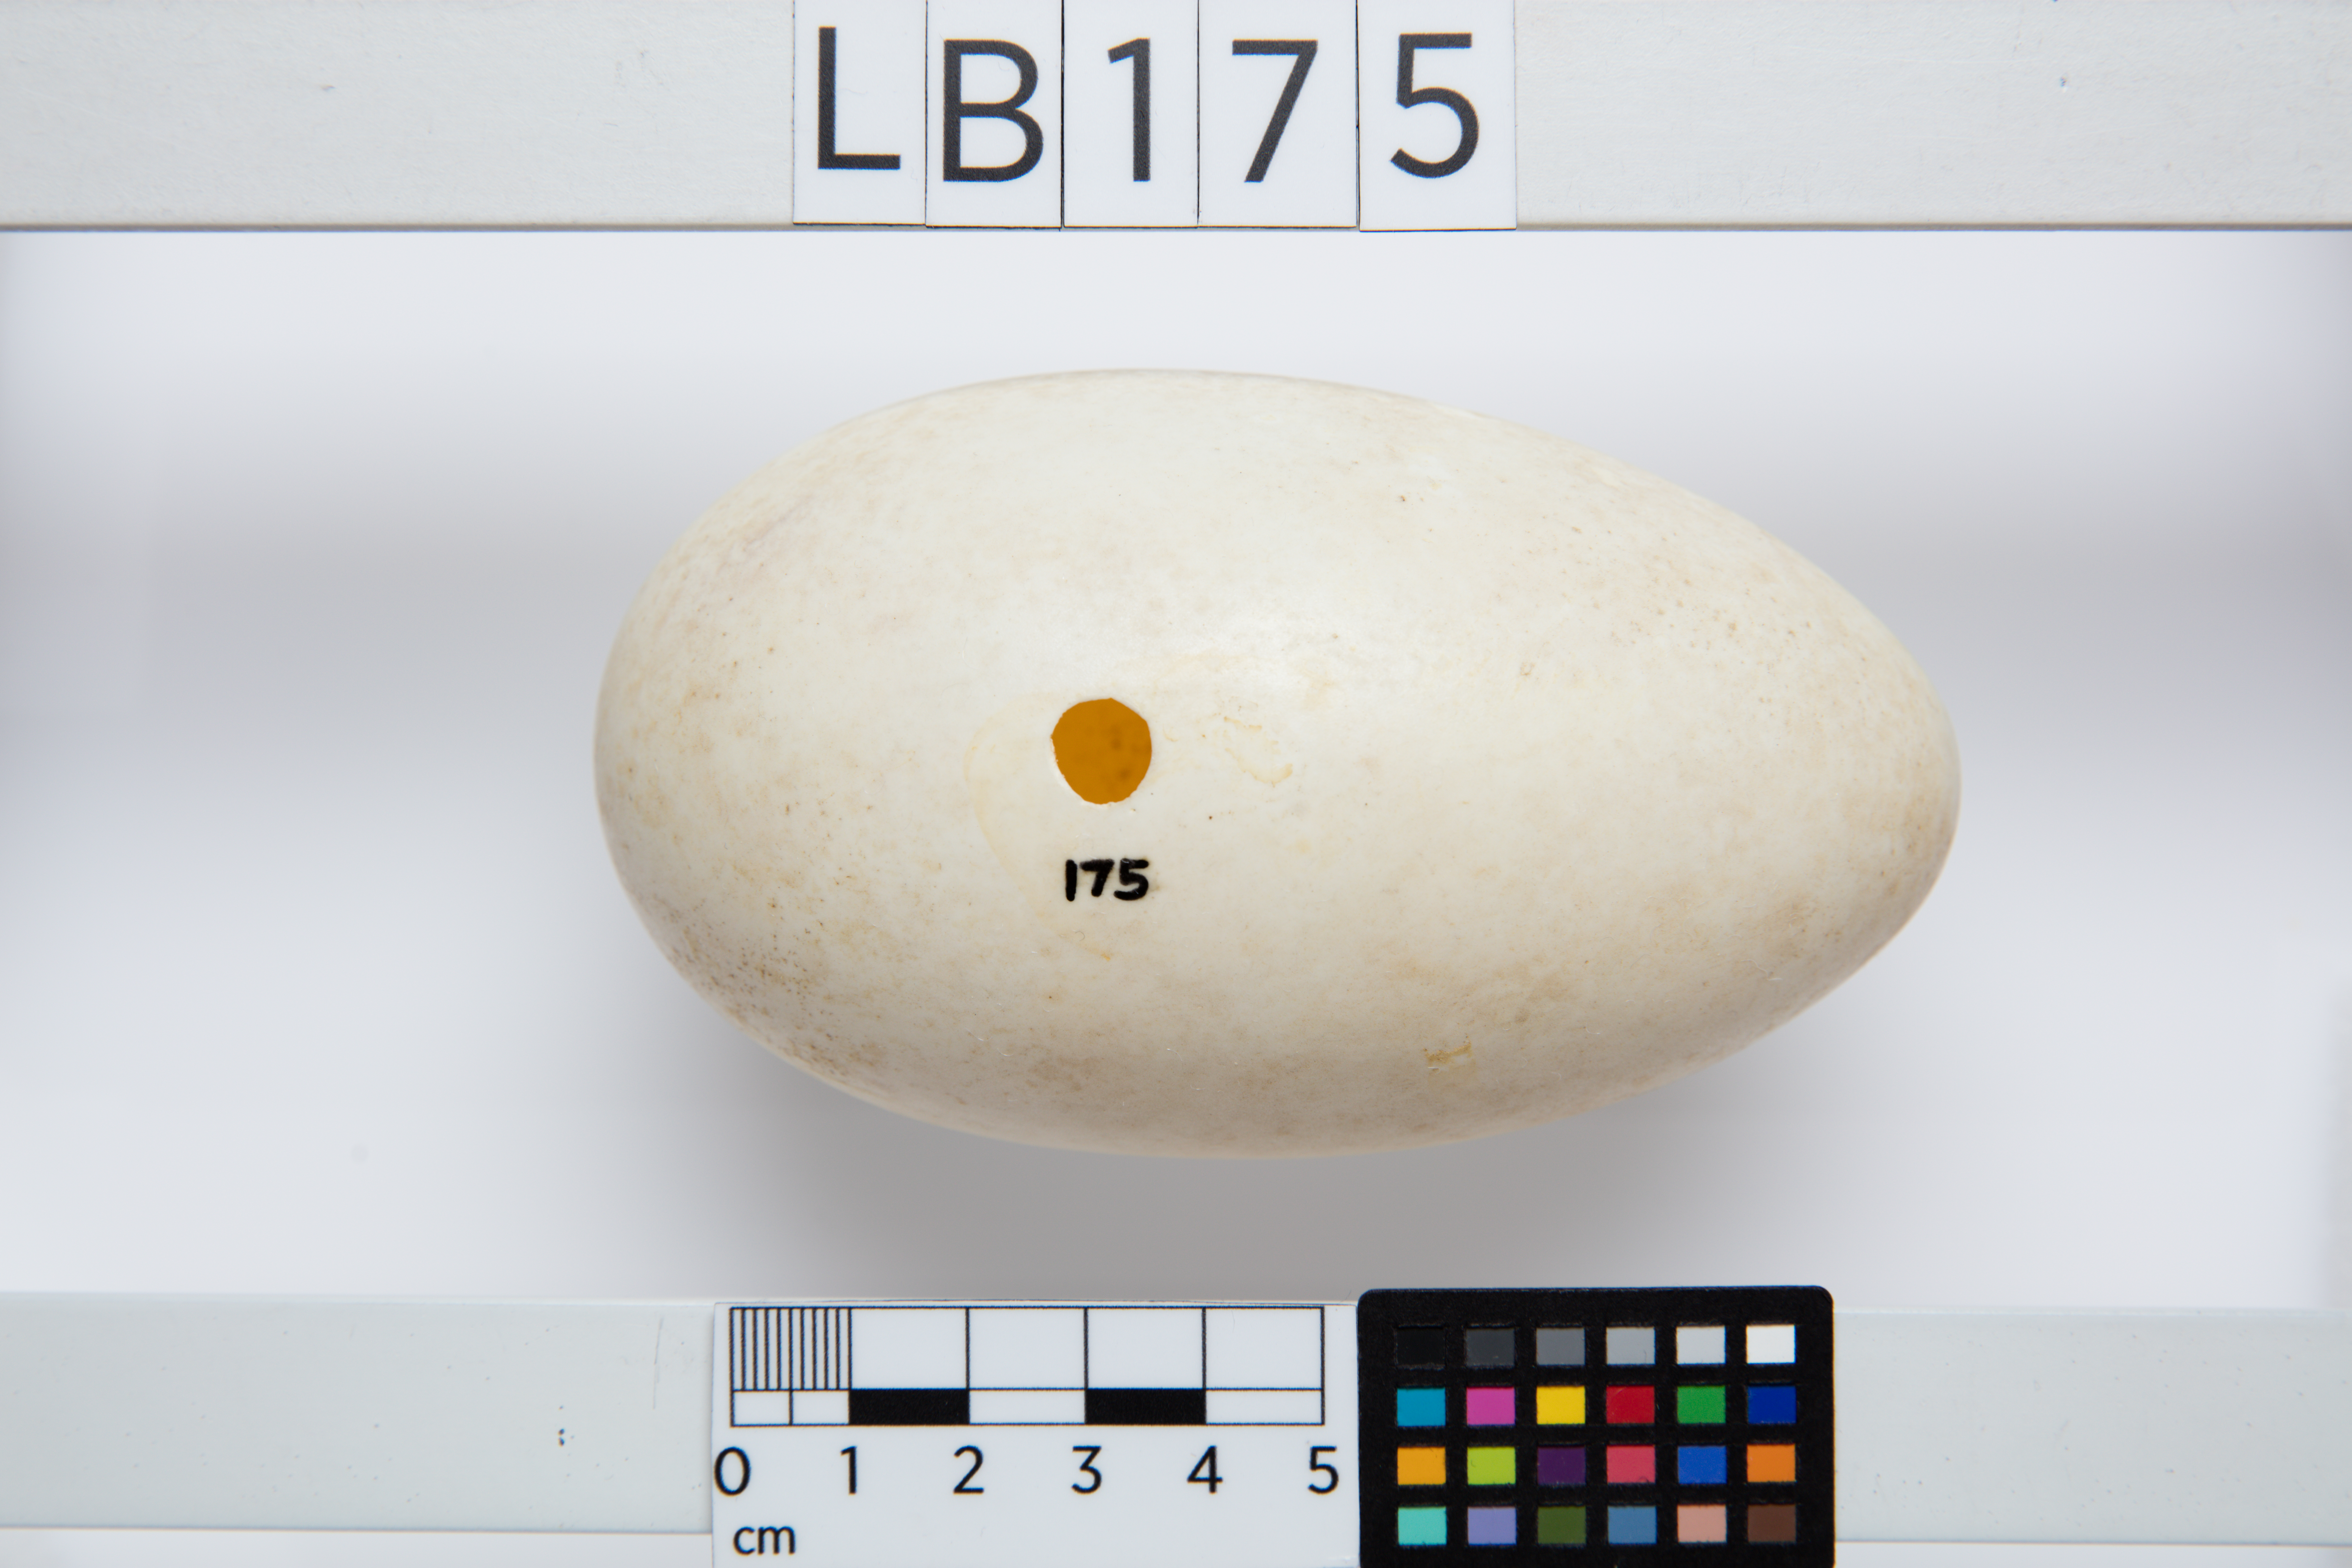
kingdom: Animalia
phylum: Chordata
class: Aves
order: Apterygiformes
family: Apterygidae
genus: Apteryx
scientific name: Apteryx mantelli
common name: North island brown kiwi
